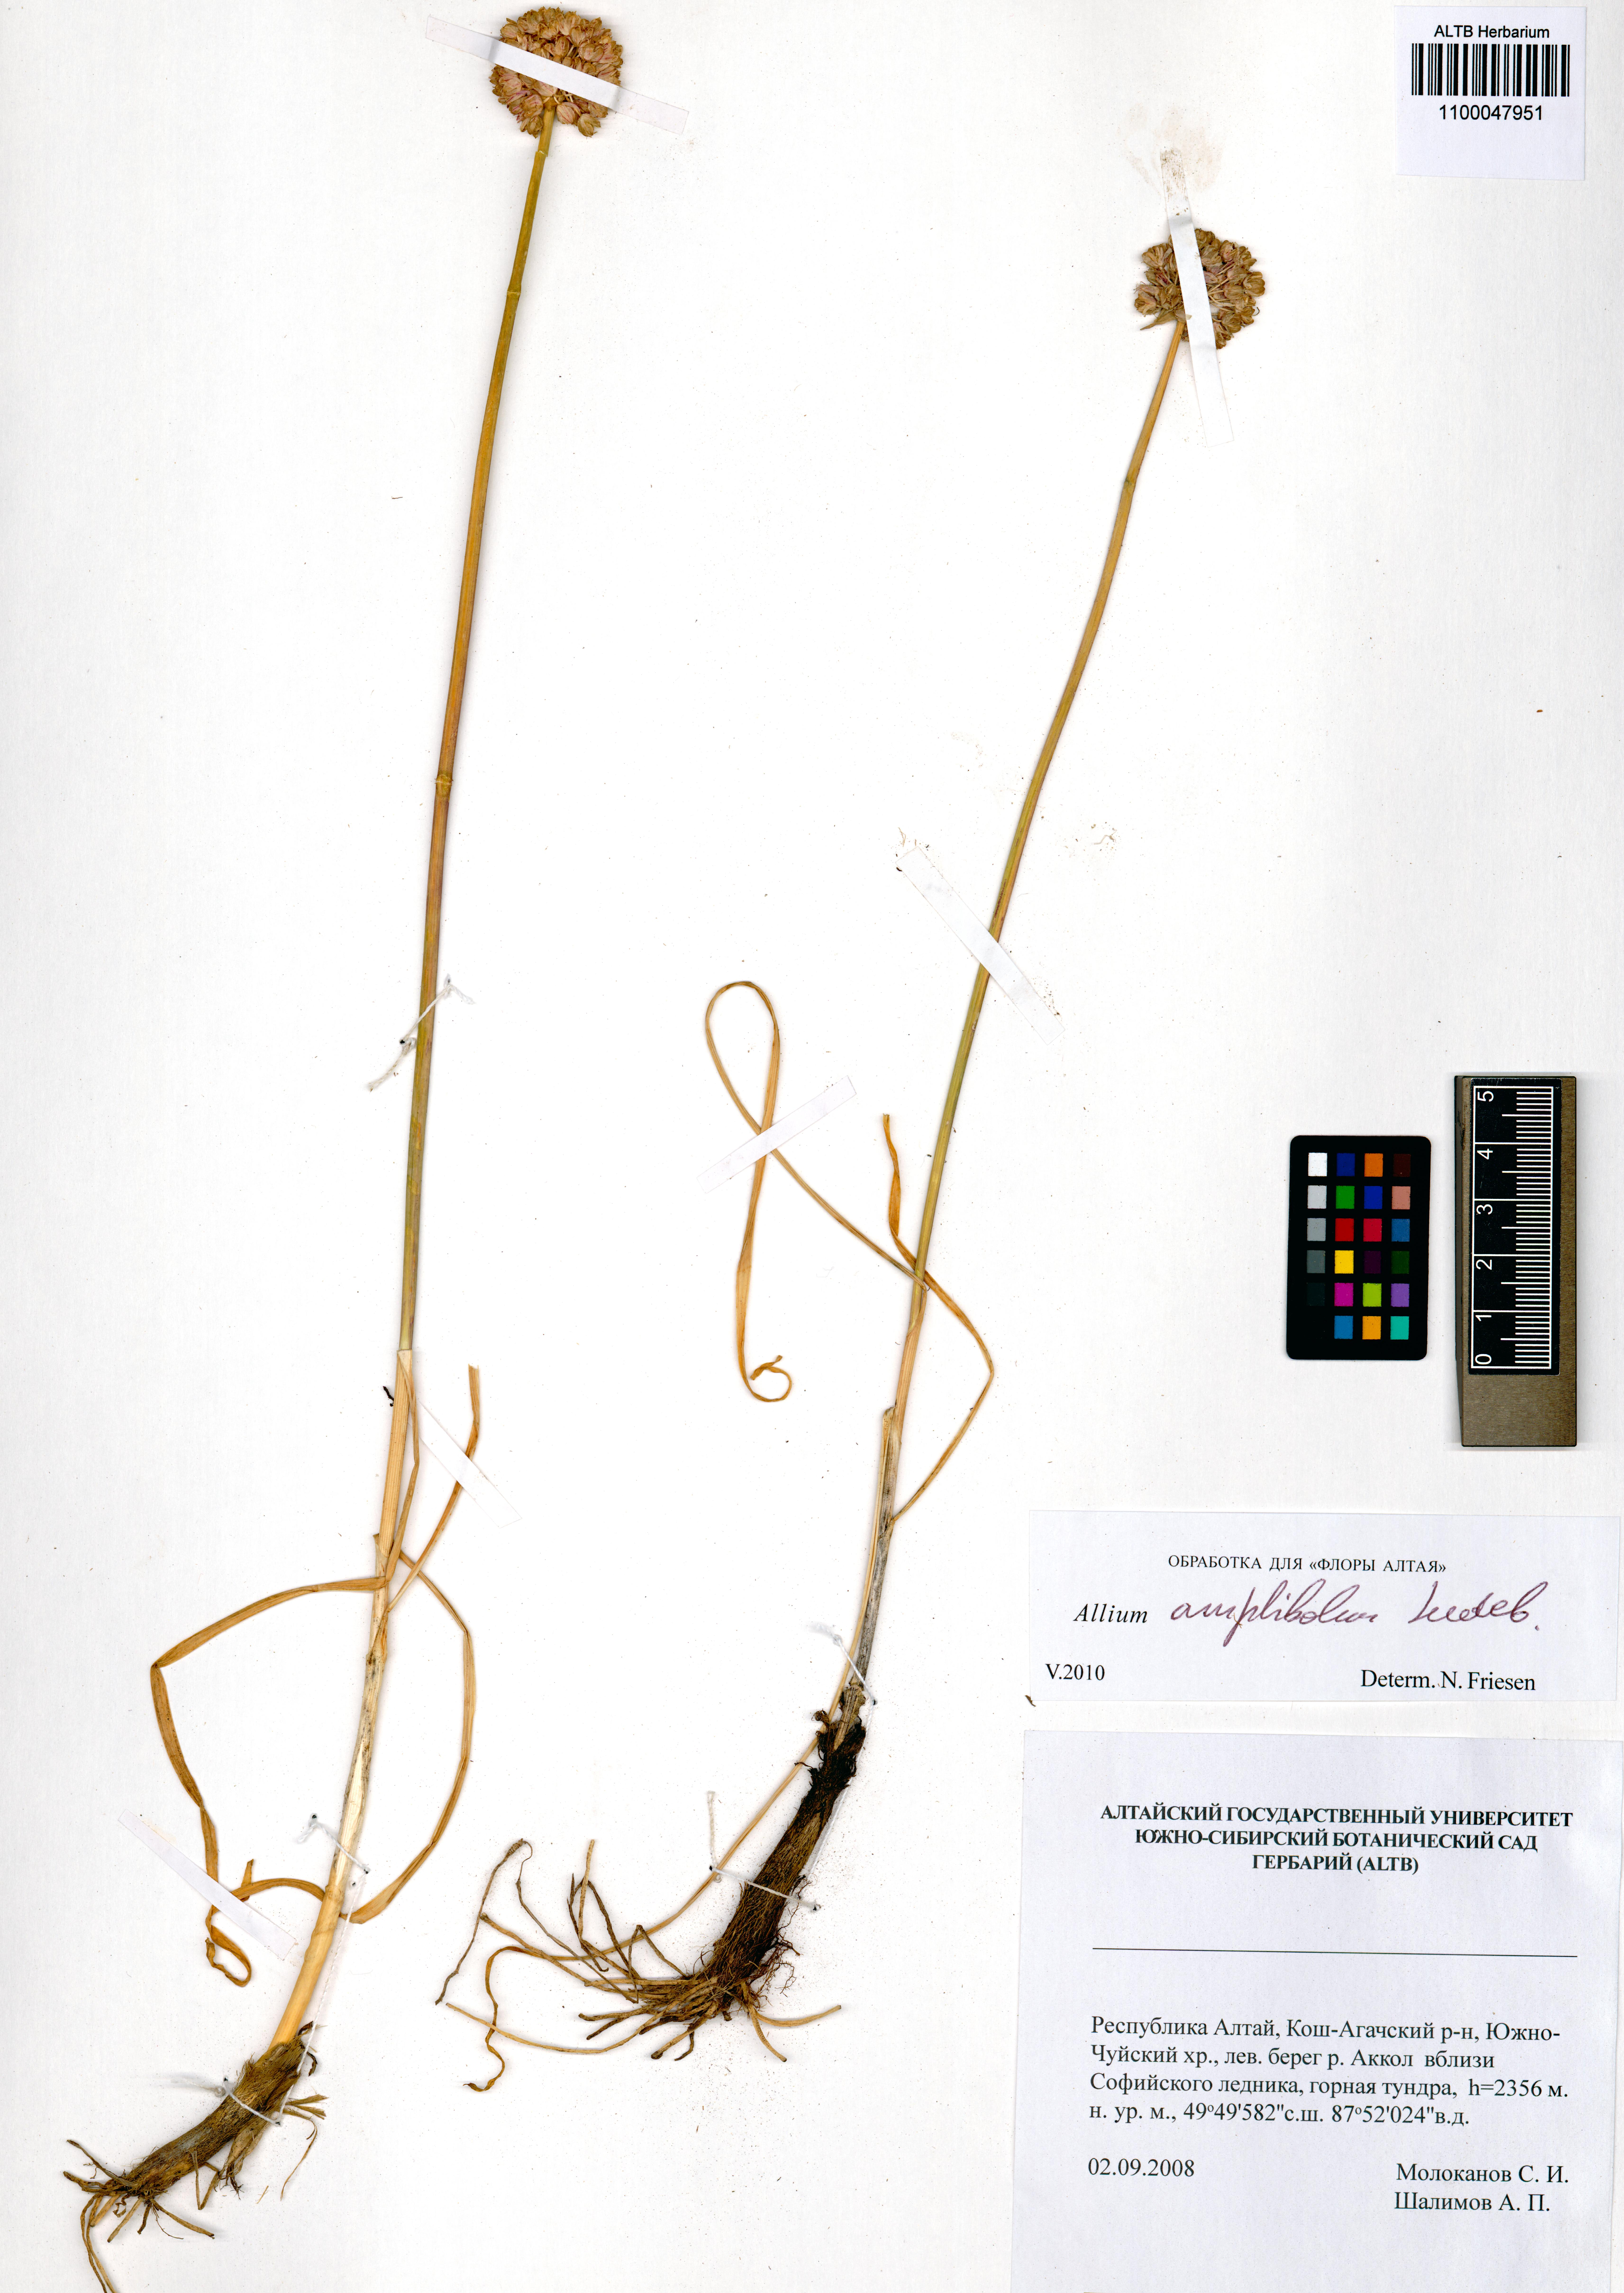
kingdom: Plantae
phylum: Tracheophyta
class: Liliopsida
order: Asparagales
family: Amaryllidaceae
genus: Allium
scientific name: Allium amphibolum
